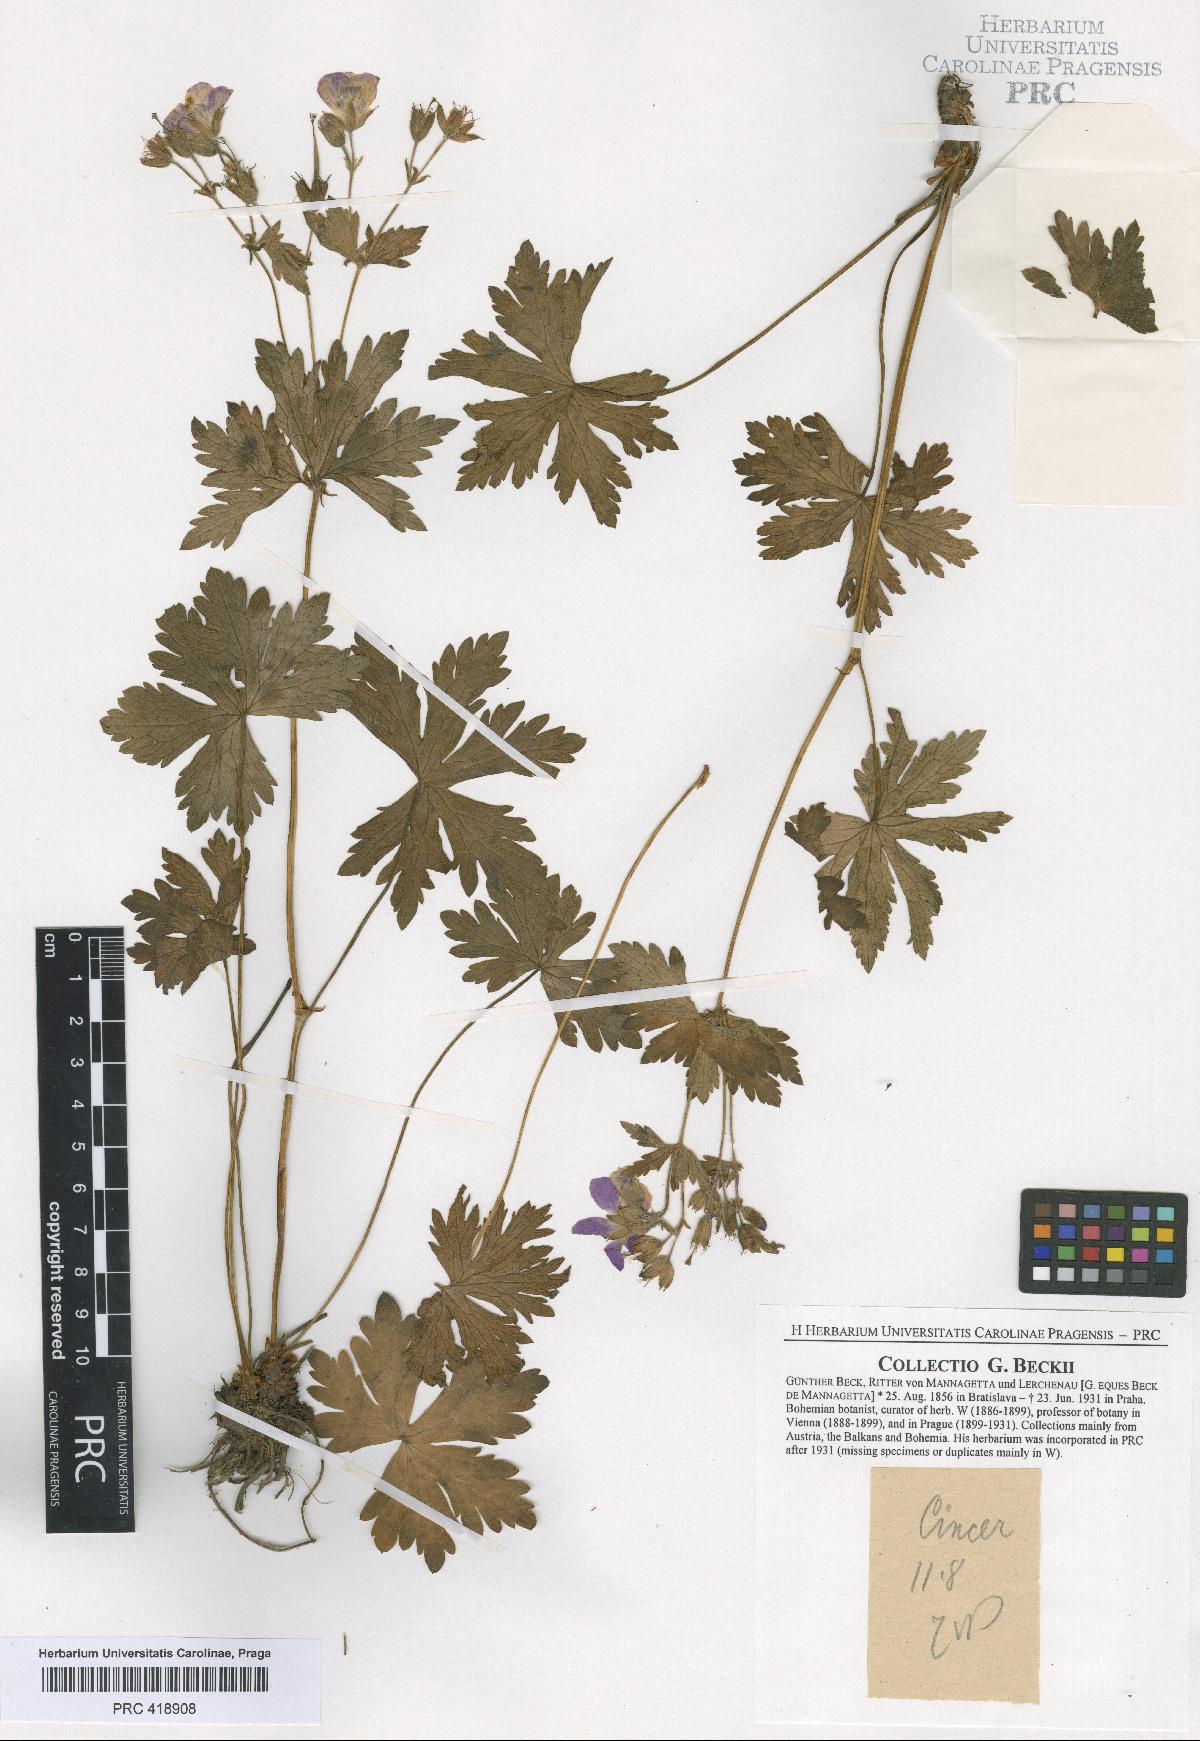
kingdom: Plantae
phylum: Tracheophyta
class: Magnoliopsida
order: Geraniales
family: Geraniaceae
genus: Geranium
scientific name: Geranium sylvaticum
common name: Wood crane's-bill
